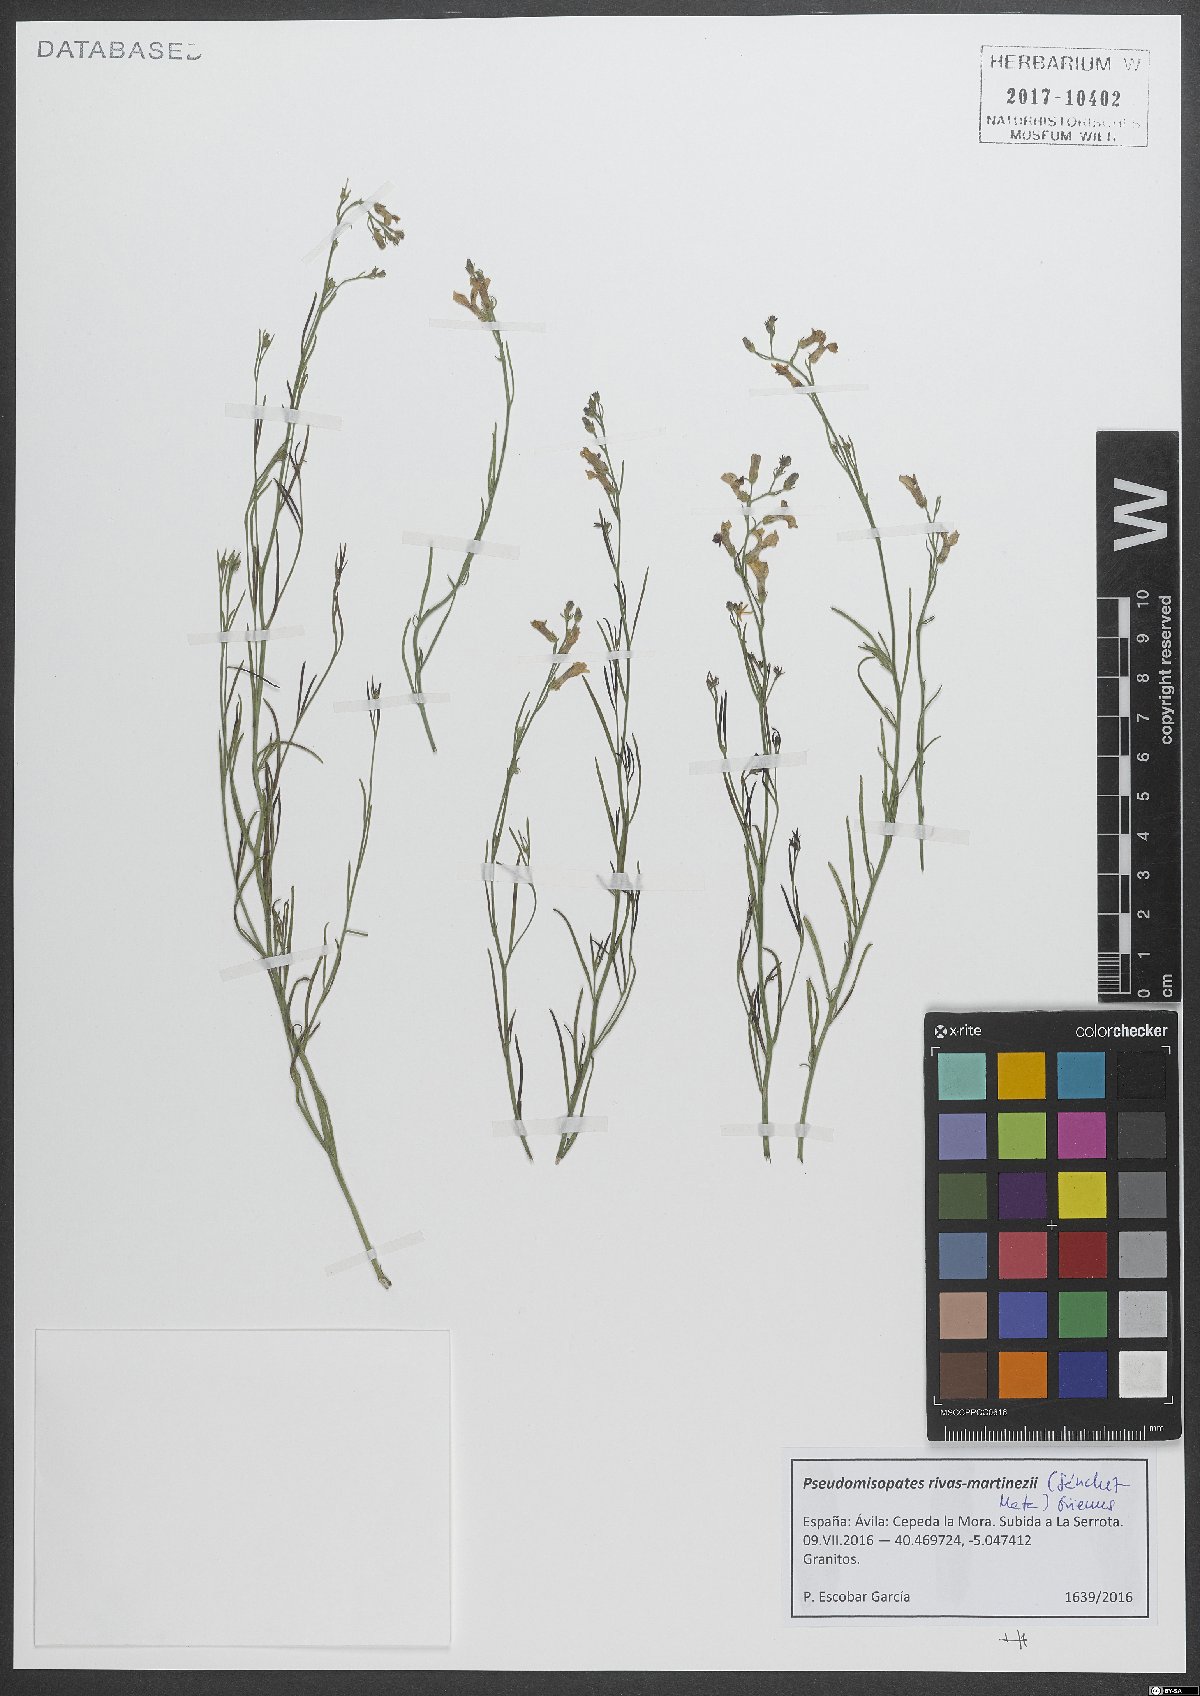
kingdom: Plantae
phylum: Tracheophyta
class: Magnoliopsida
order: Lamiales
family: Plantaginaceae
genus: Pseudomisopates
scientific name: Pseudomisopates rivas-martinezii
